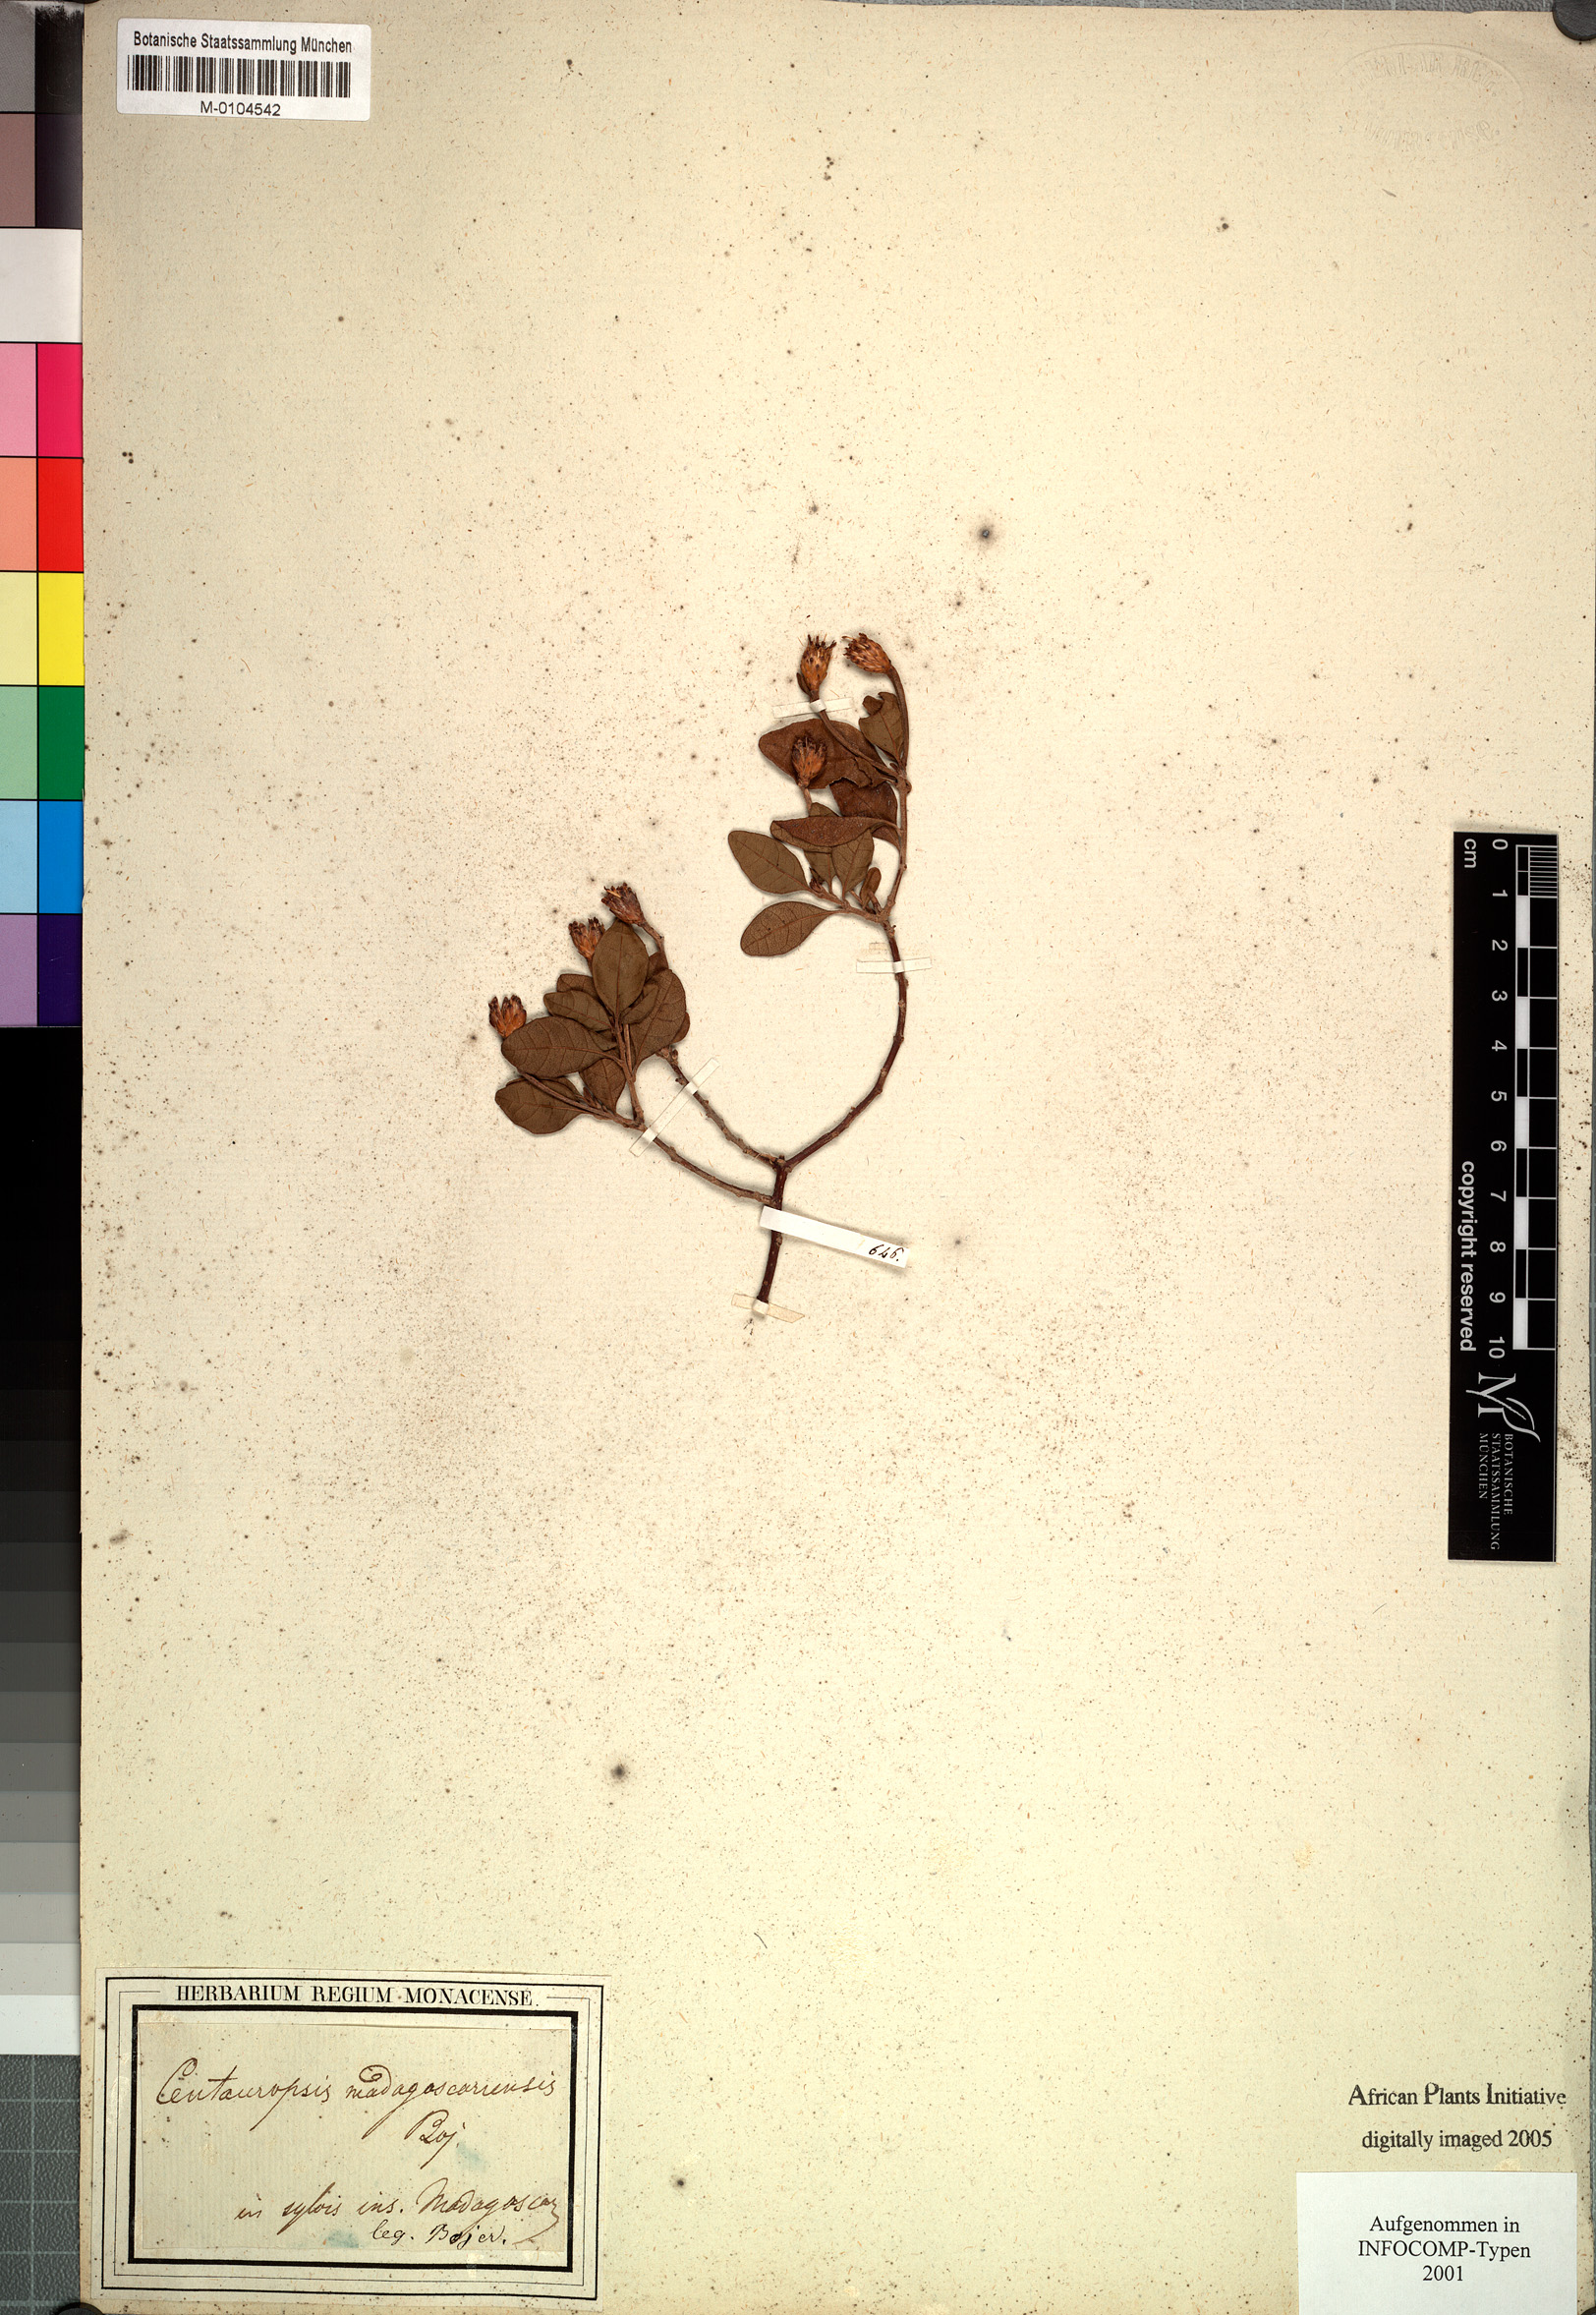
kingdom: Plantae
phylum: Tracheophyta
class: Magnoliopsida
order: Asterales
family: Asteraceae
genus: Centauropsis
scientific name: Centauropsis fruticosa
